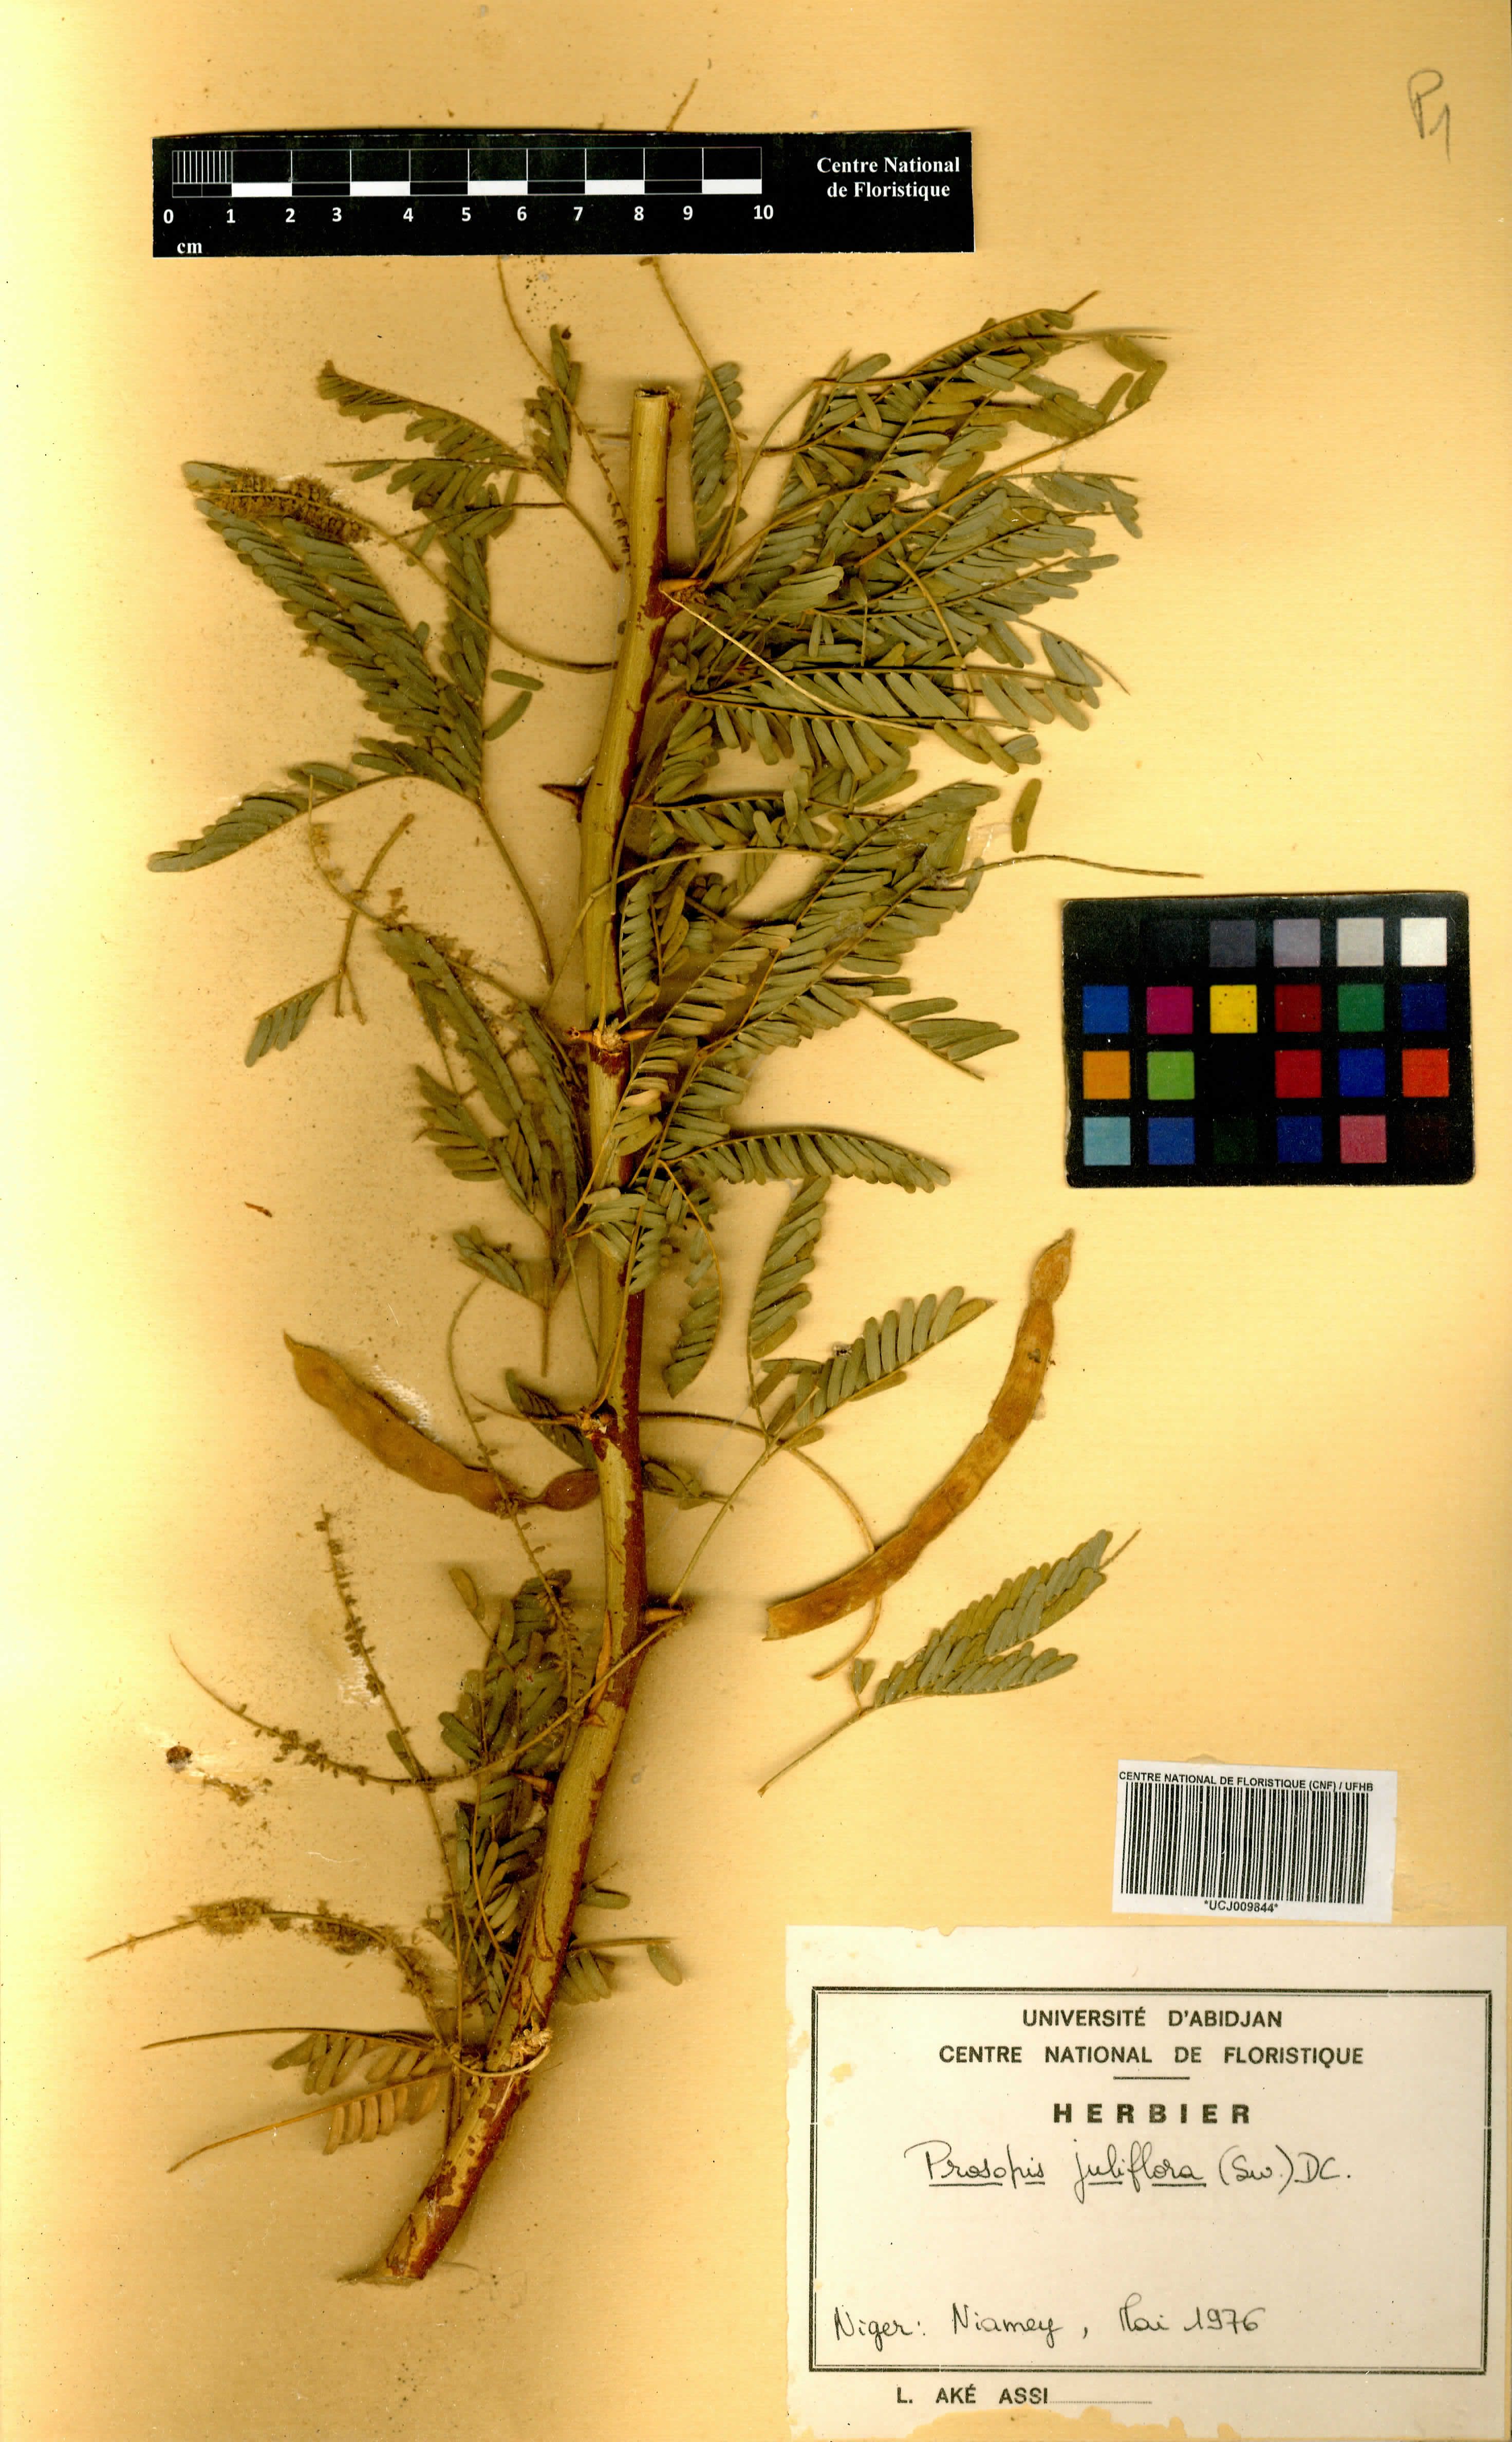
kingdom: Plantae
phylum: Tracheophyta
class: Magnoliopsida
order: Fabales
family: Fabaceae
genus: Prosopis
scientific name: Prosopis juliflora
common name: Mesquite
